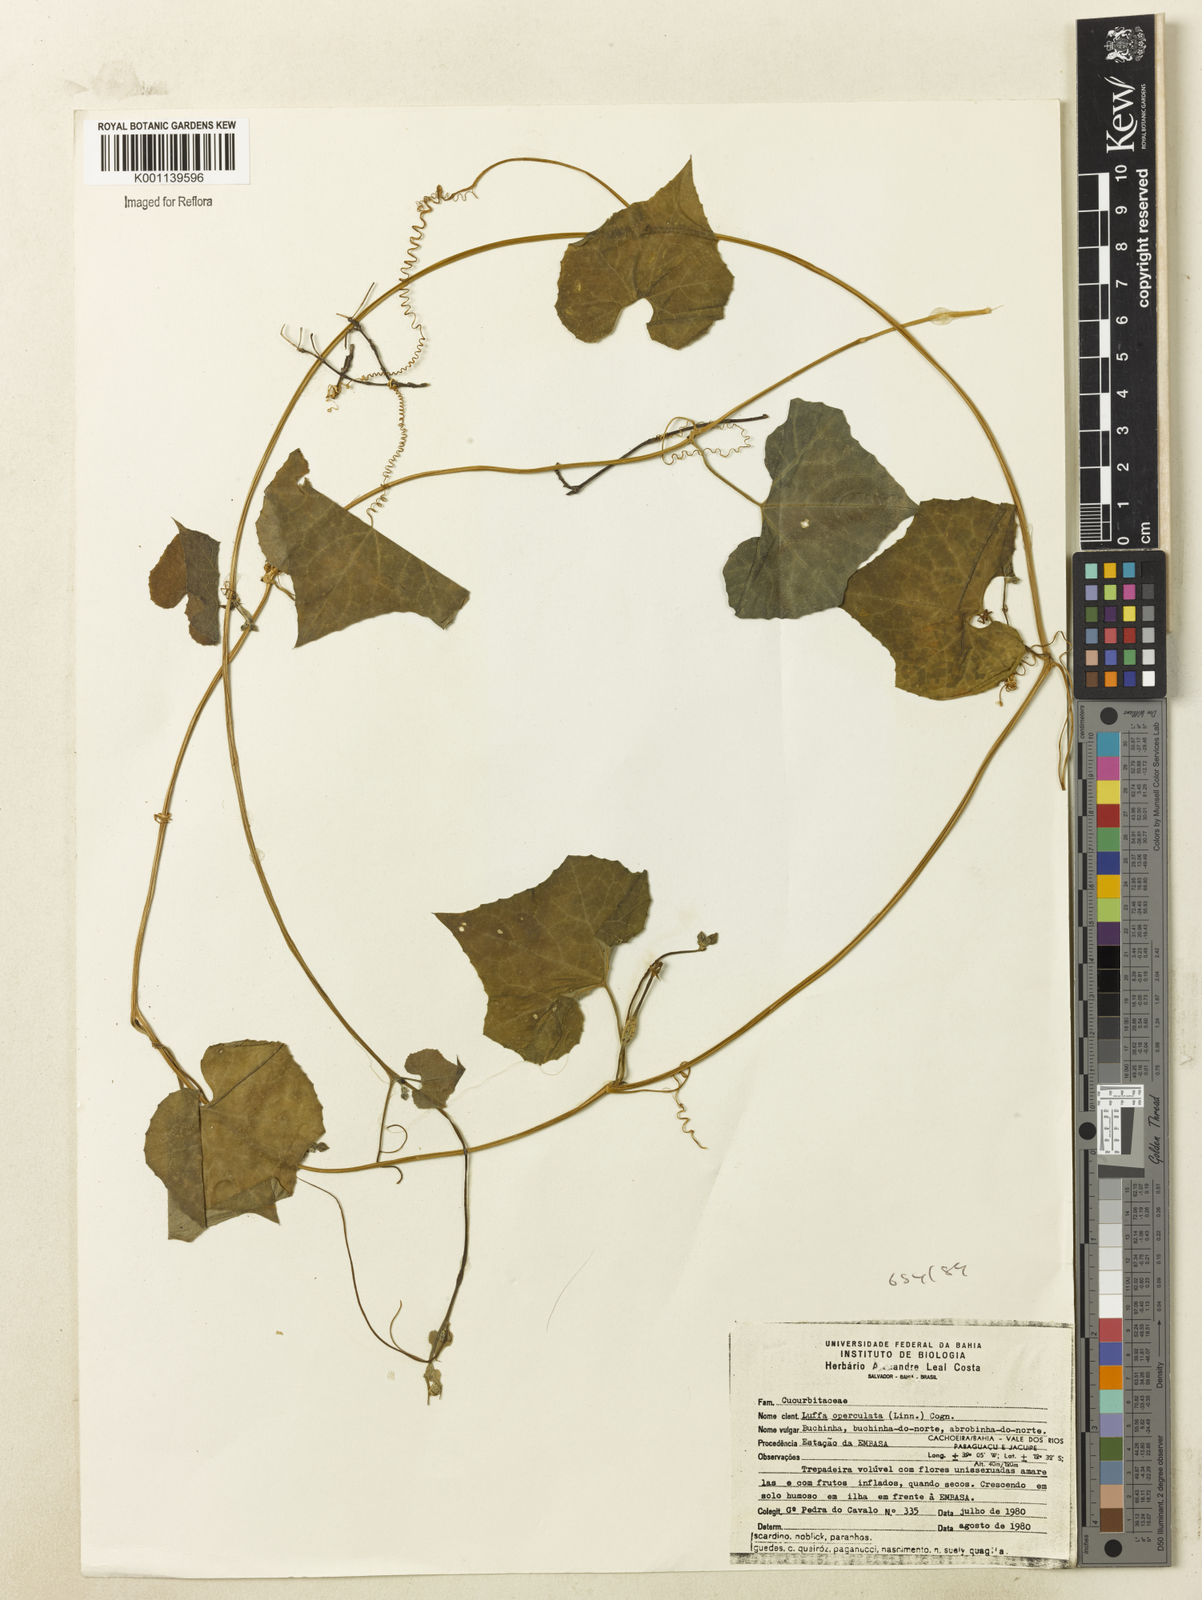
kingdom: Plantae
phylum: Tracheophyta
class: Magnoliopsida
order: Cucurbitales
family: Cucurbitaceae
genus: Luffa
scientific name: Luffa operculata
